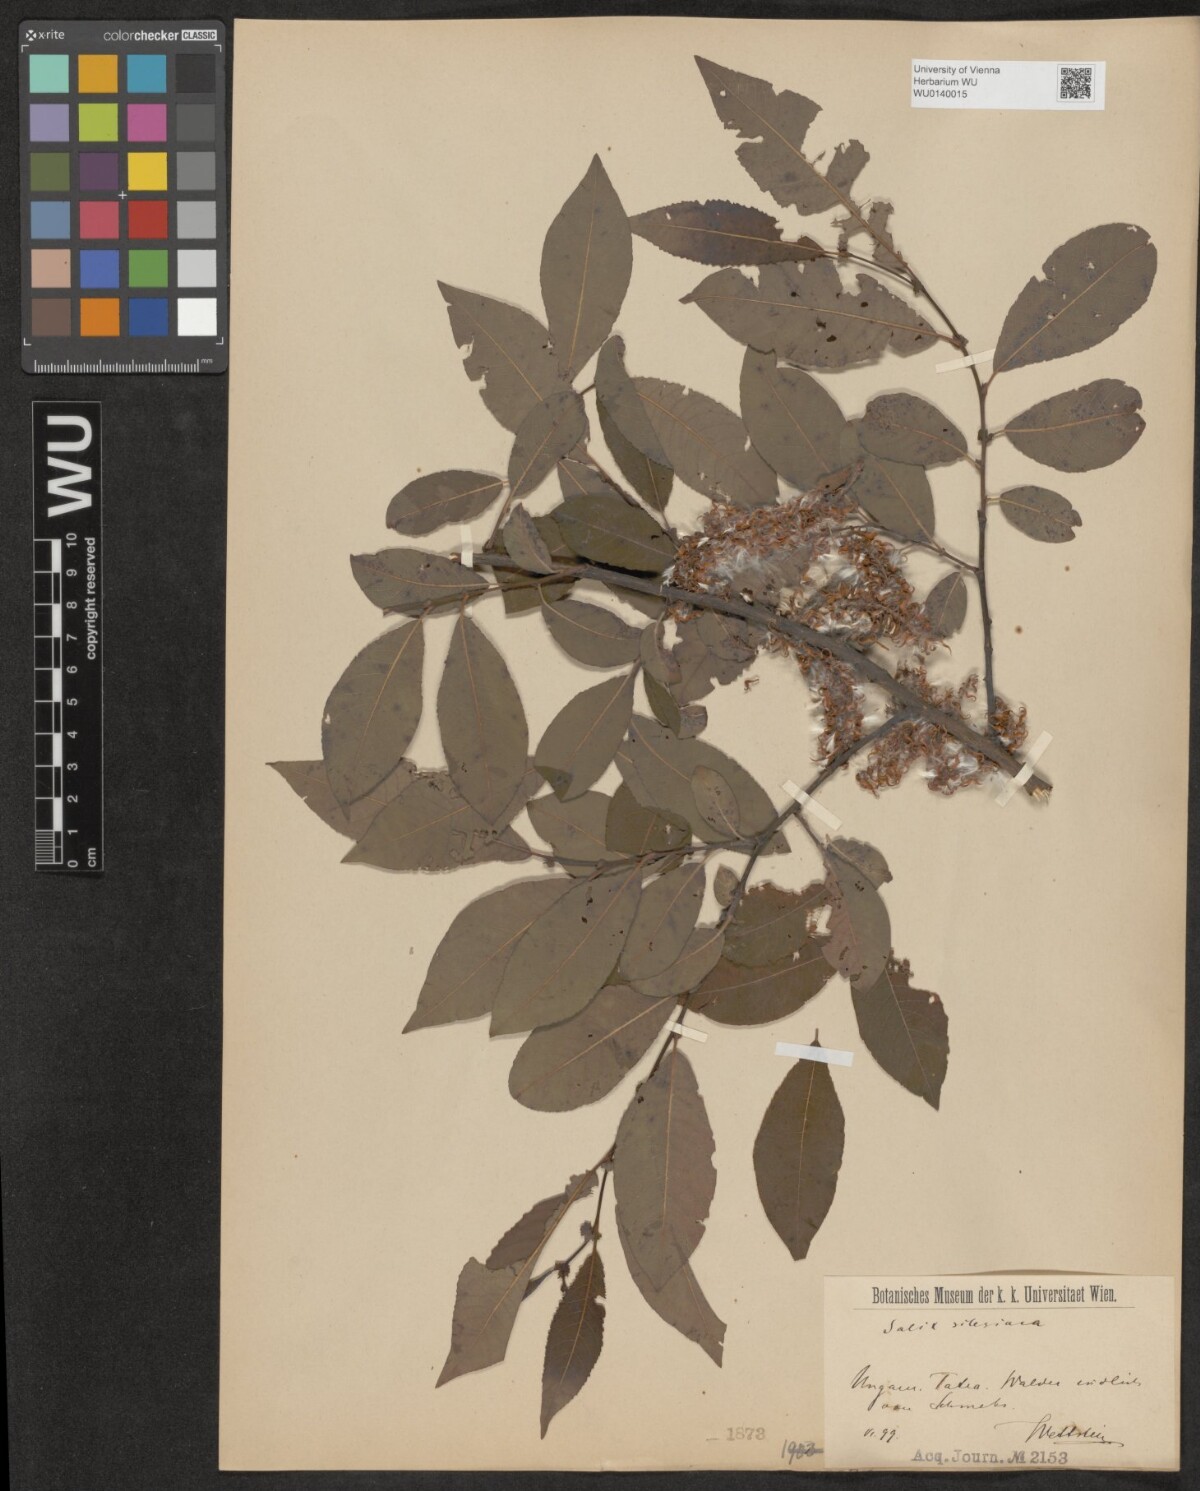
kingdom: Plantae
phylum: Tracheophyta
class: Magnoliopsida
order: Malpighiales
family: Salicaceae
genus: Salix
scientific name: Salix silesiaca
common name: Silesian willow
